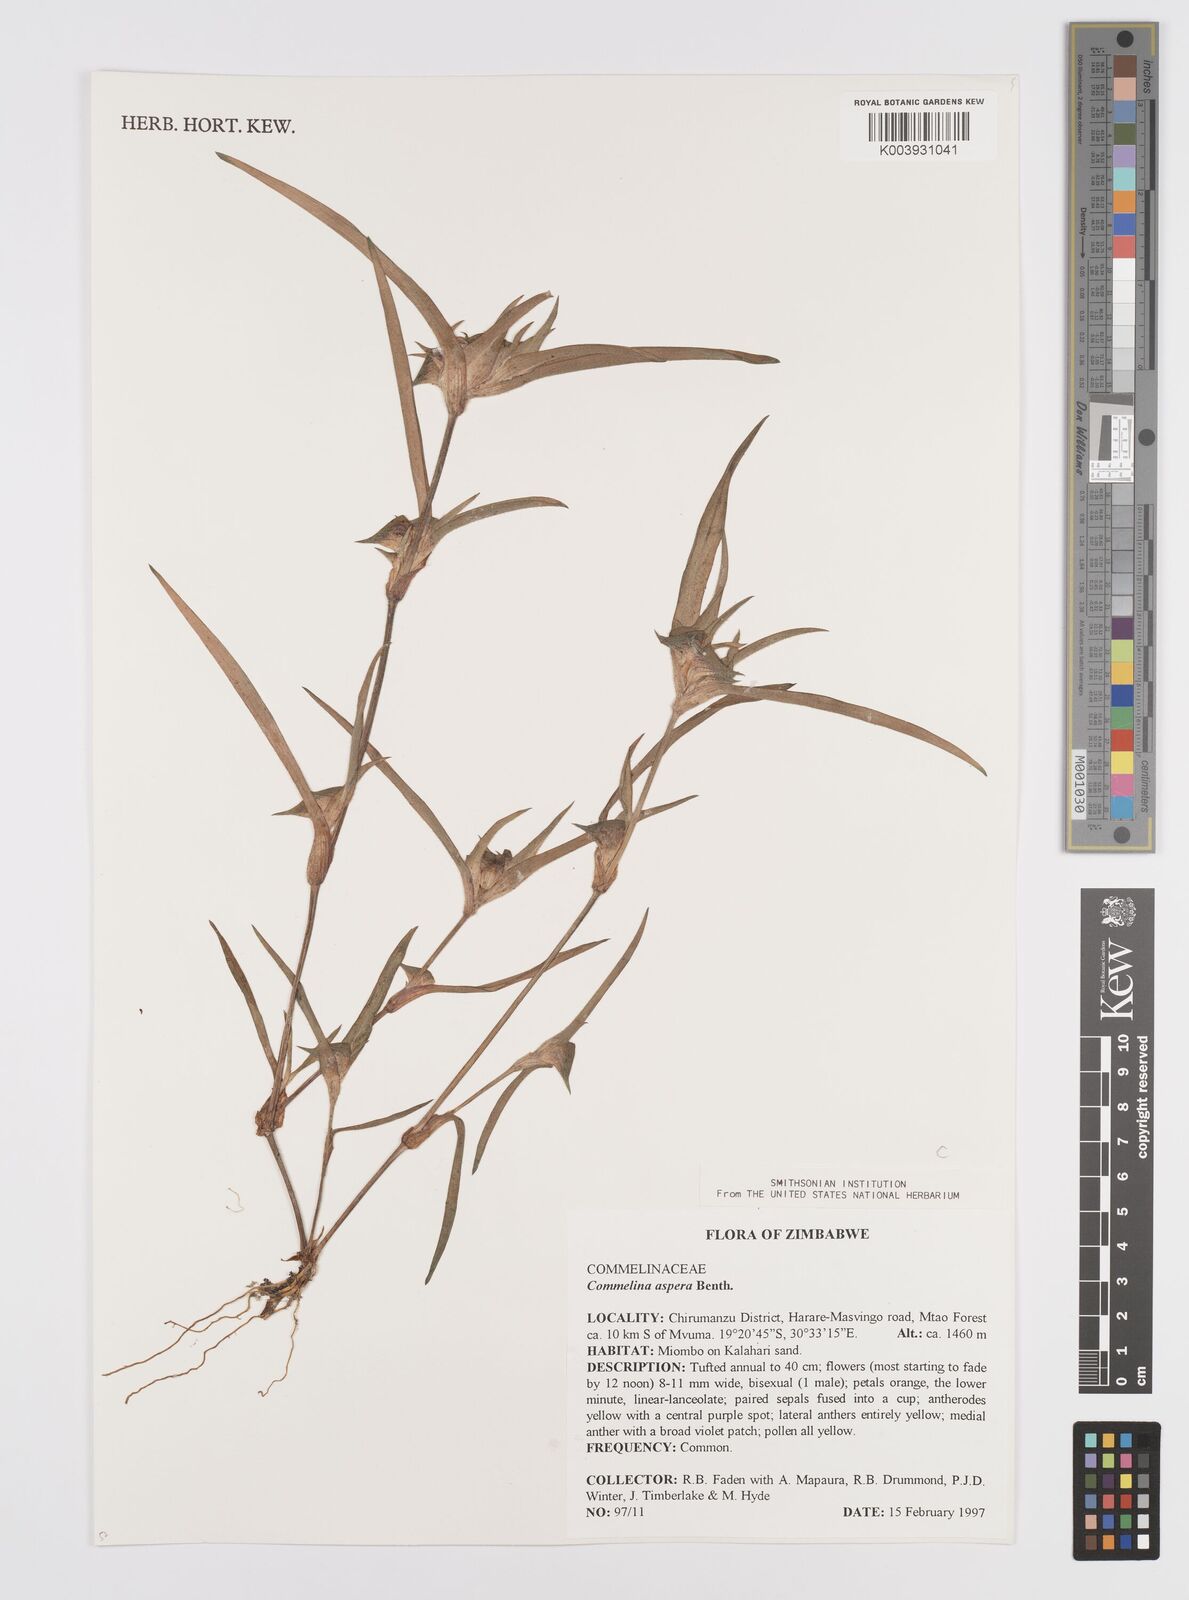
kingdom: Plantae
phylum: Tracheophyta
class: Liliopsida
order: Commelinales
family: Commelinaceae
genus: Commelina
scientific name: Commelina aspera
